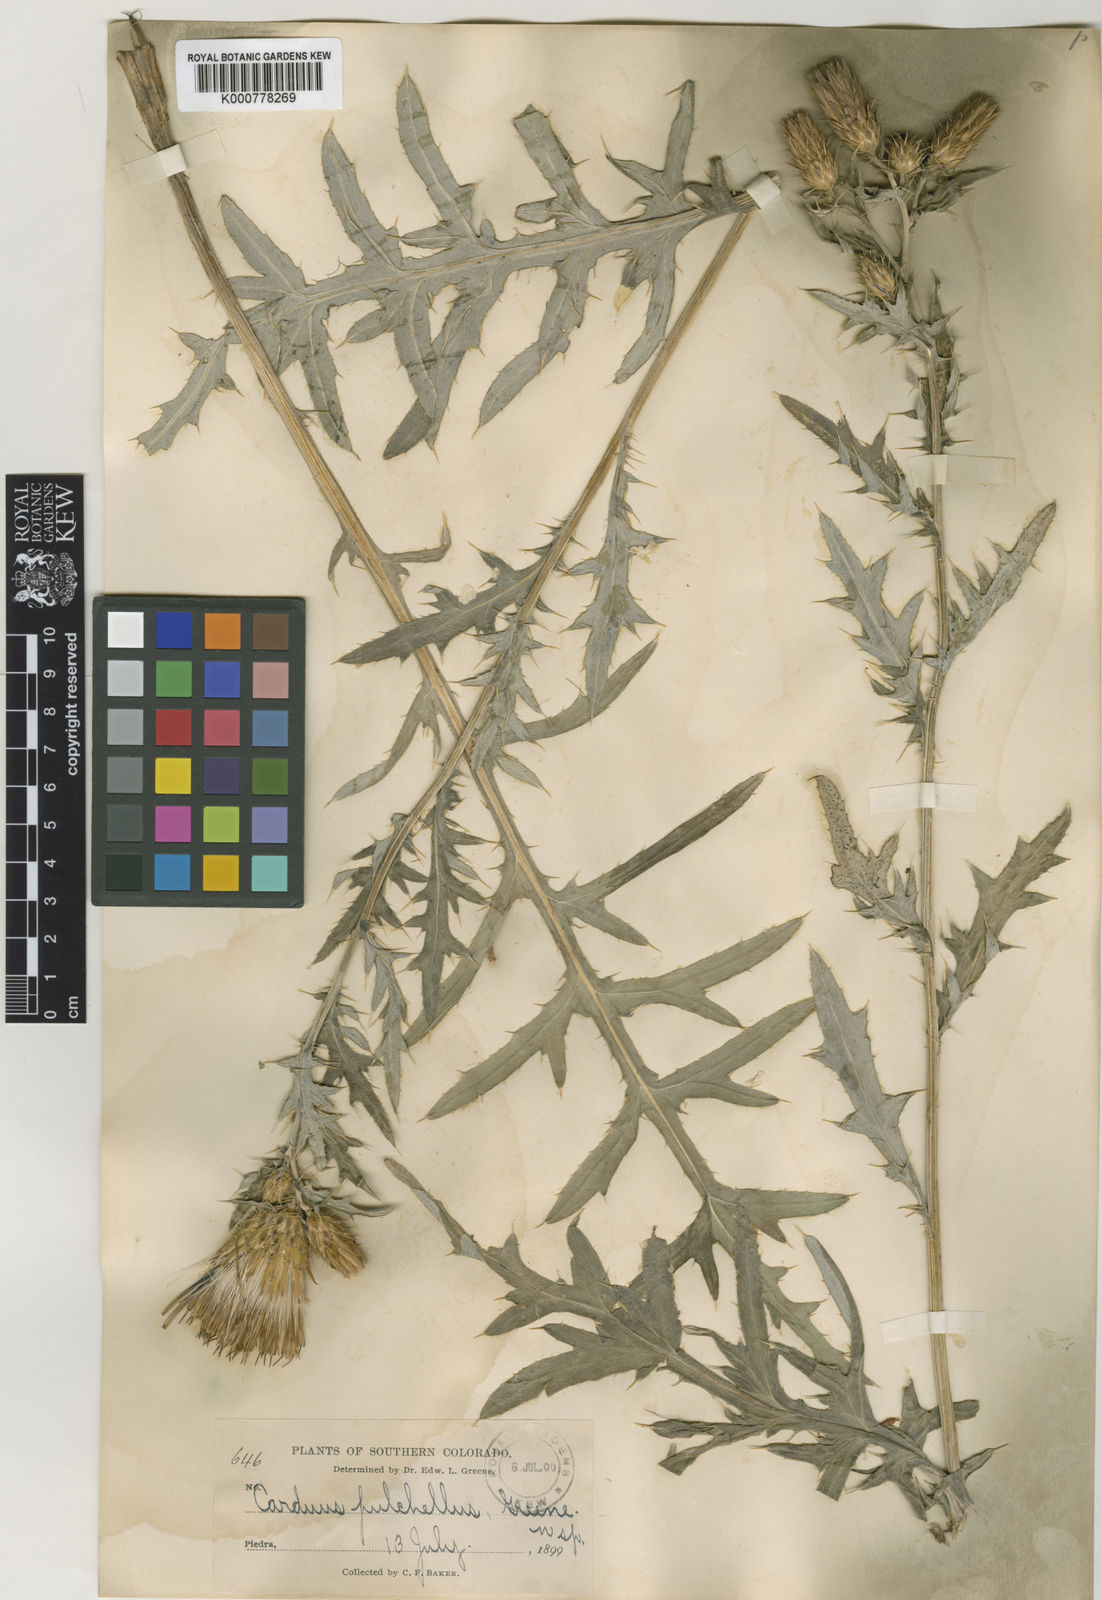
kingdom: Plantae
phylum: Tracheophyta
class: Magnoliopsida
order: Asterales
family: Asteraceae
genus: Cirsium
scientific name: Cirsium pulchellum
